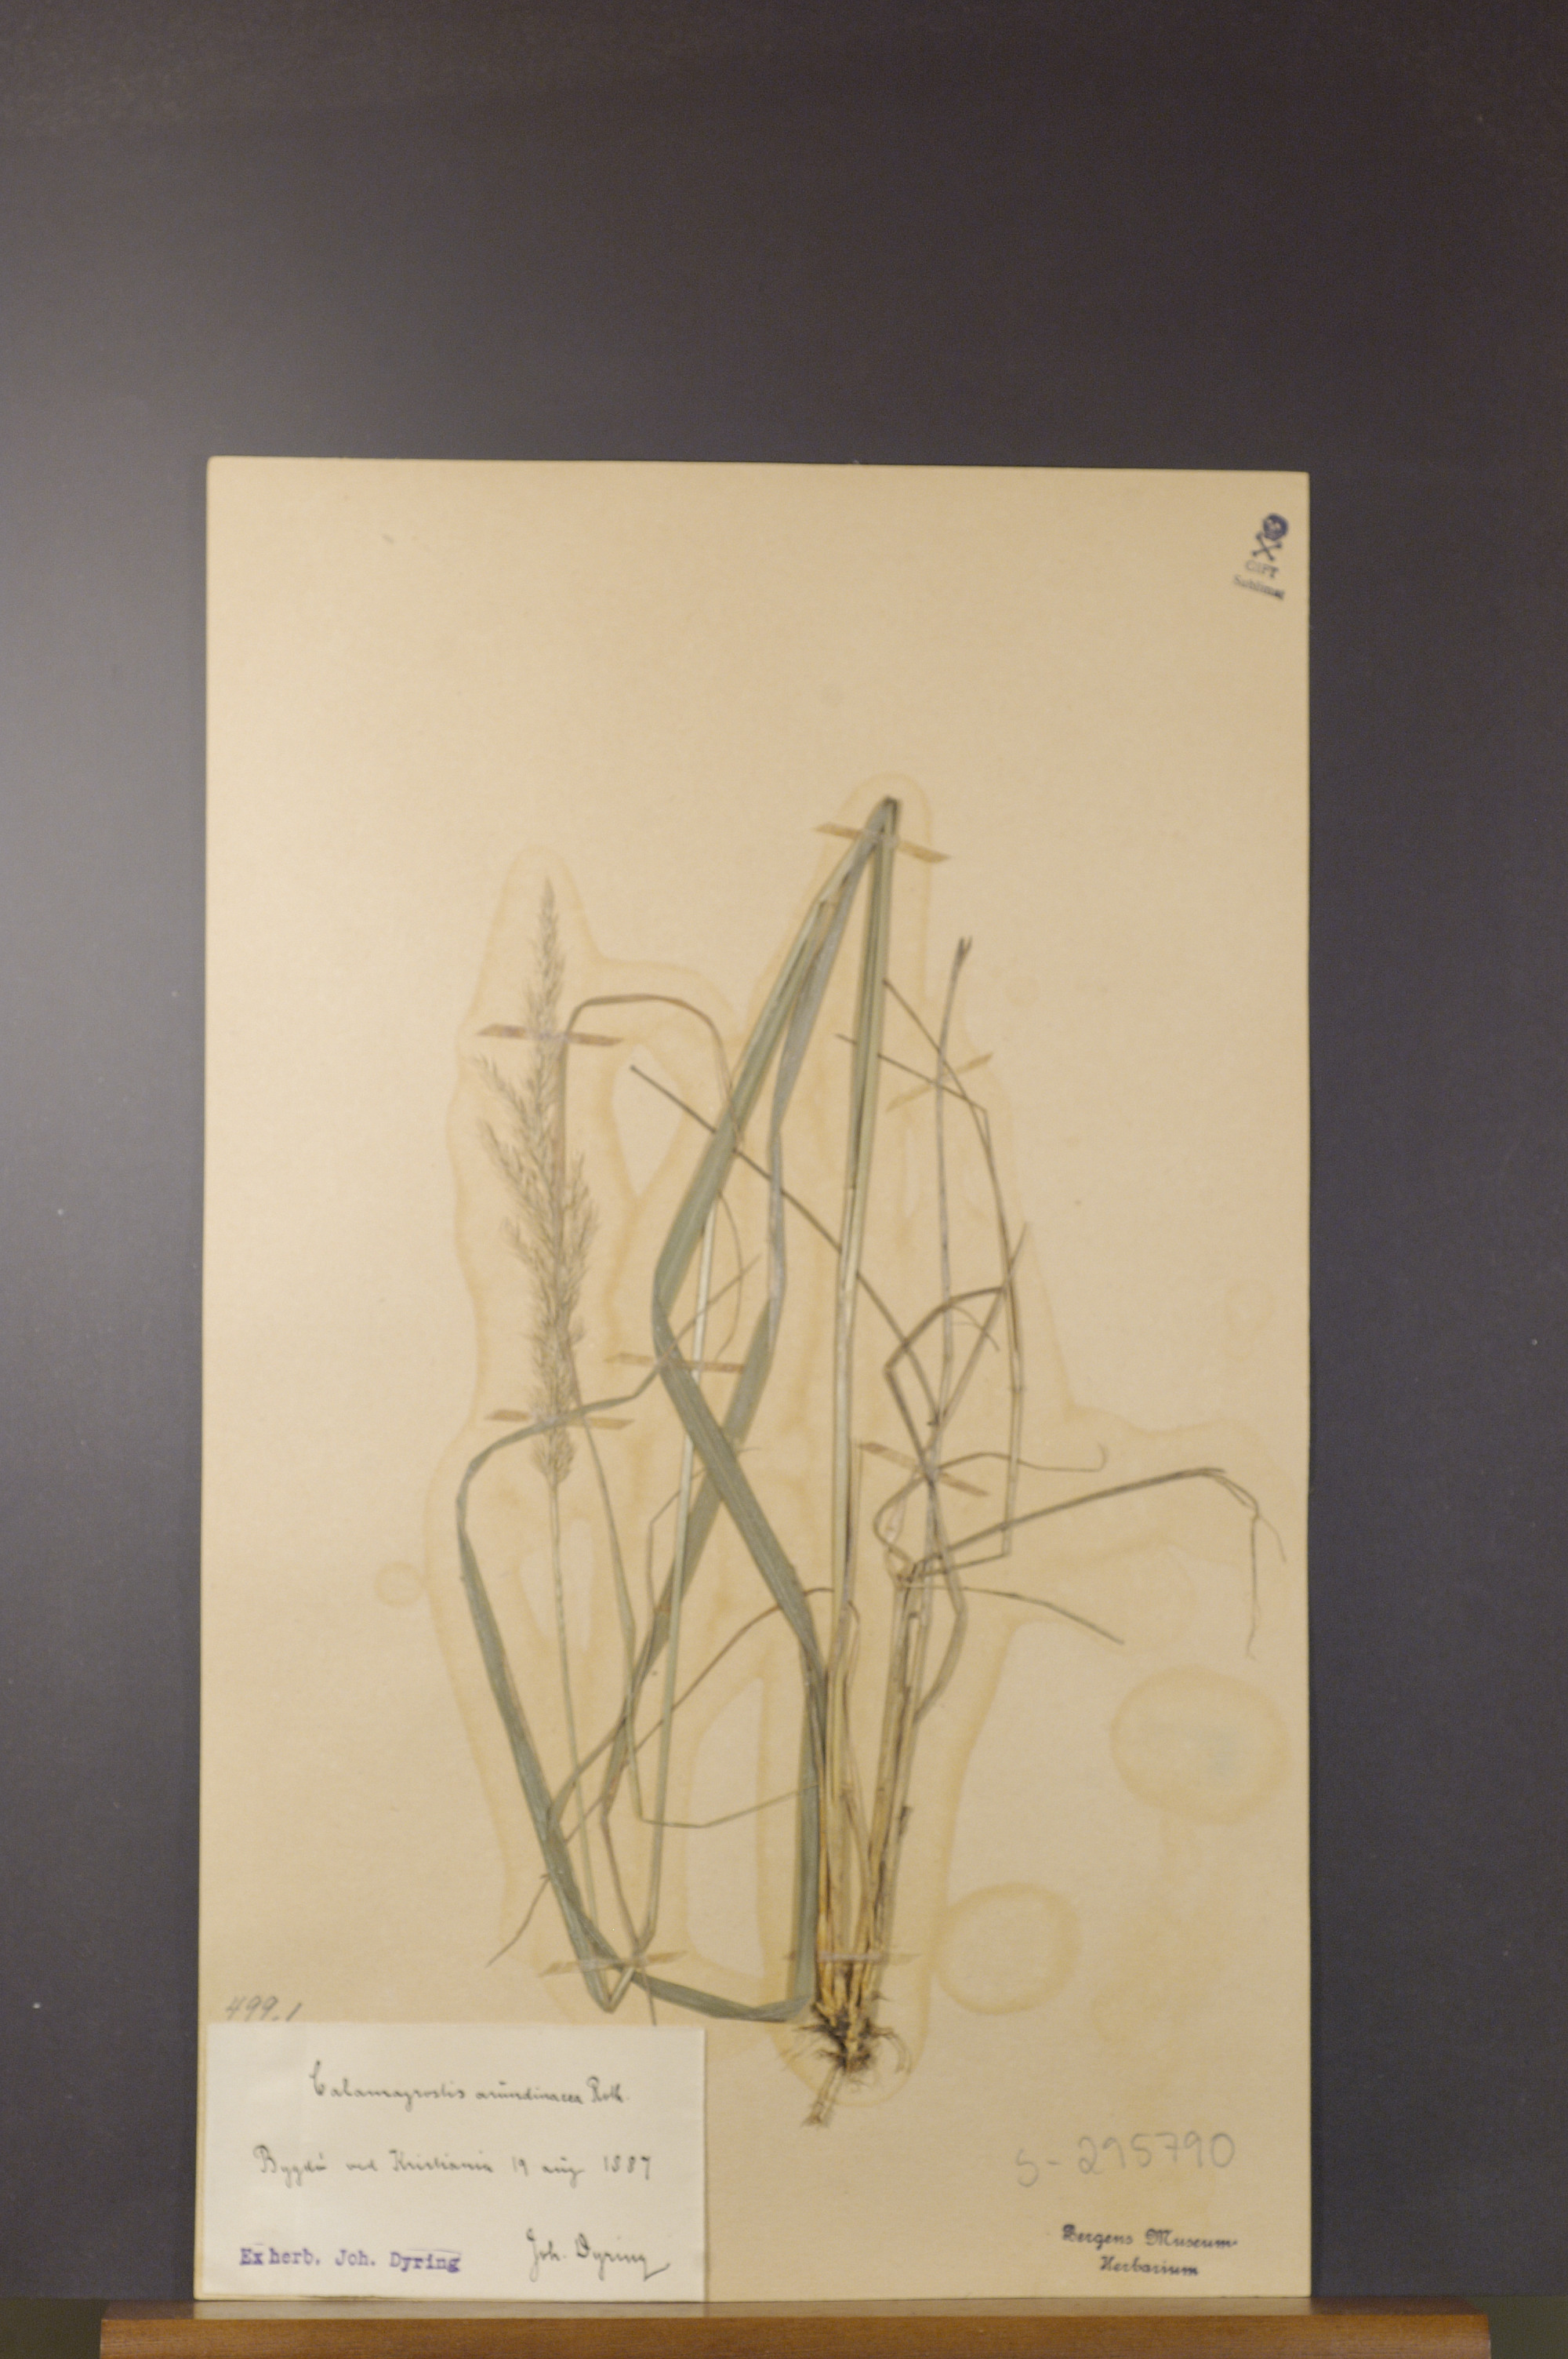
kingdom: Plantae
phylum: Tracheophyta
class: Liliopsida
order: Poales
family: Poaceae
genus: Calamagrostis
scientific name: Calamagrostis arundinacea
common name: Metskastik
